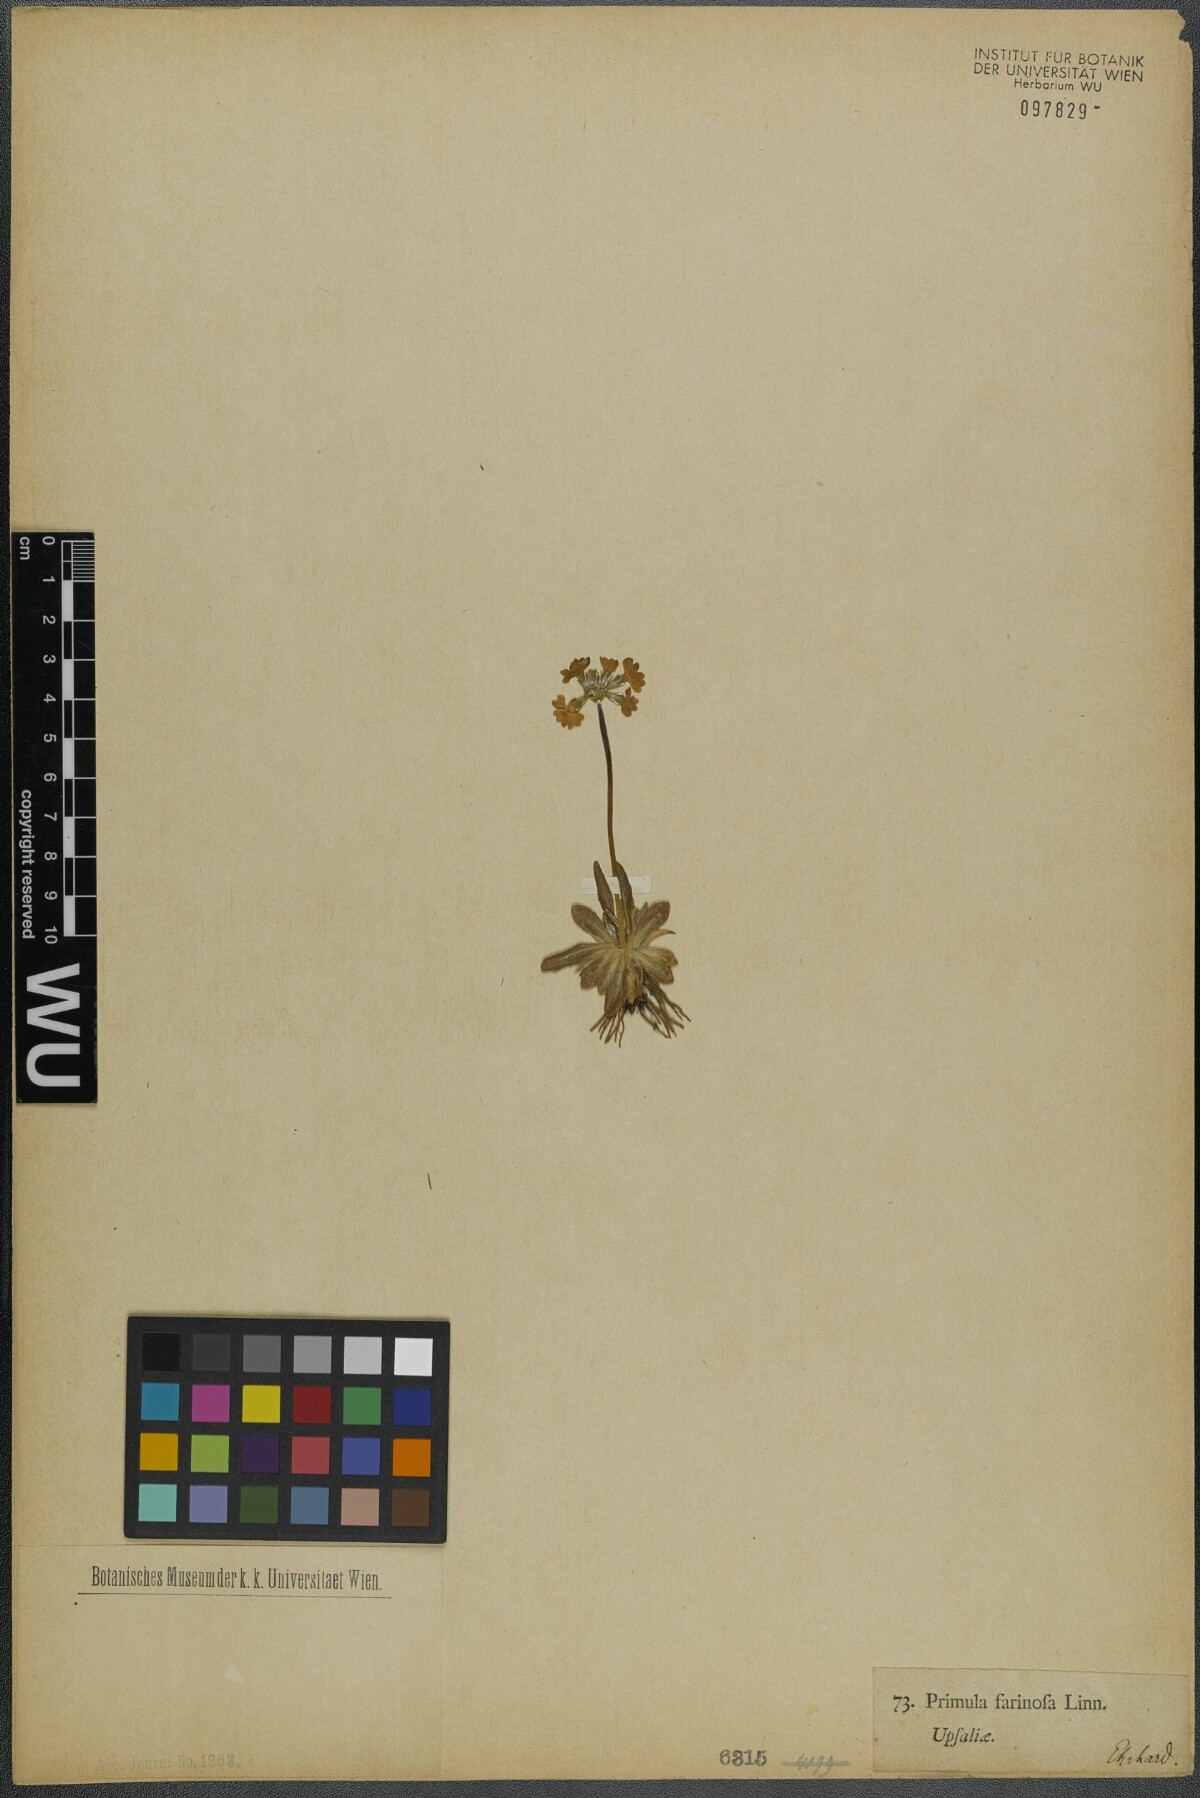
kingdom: Plantae
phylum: Tracheophyta
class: Magnoliopsida
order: Ericales
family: Primulaceae
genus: Primula
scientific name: Primula farinosa
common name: Bird's-eye primrose
